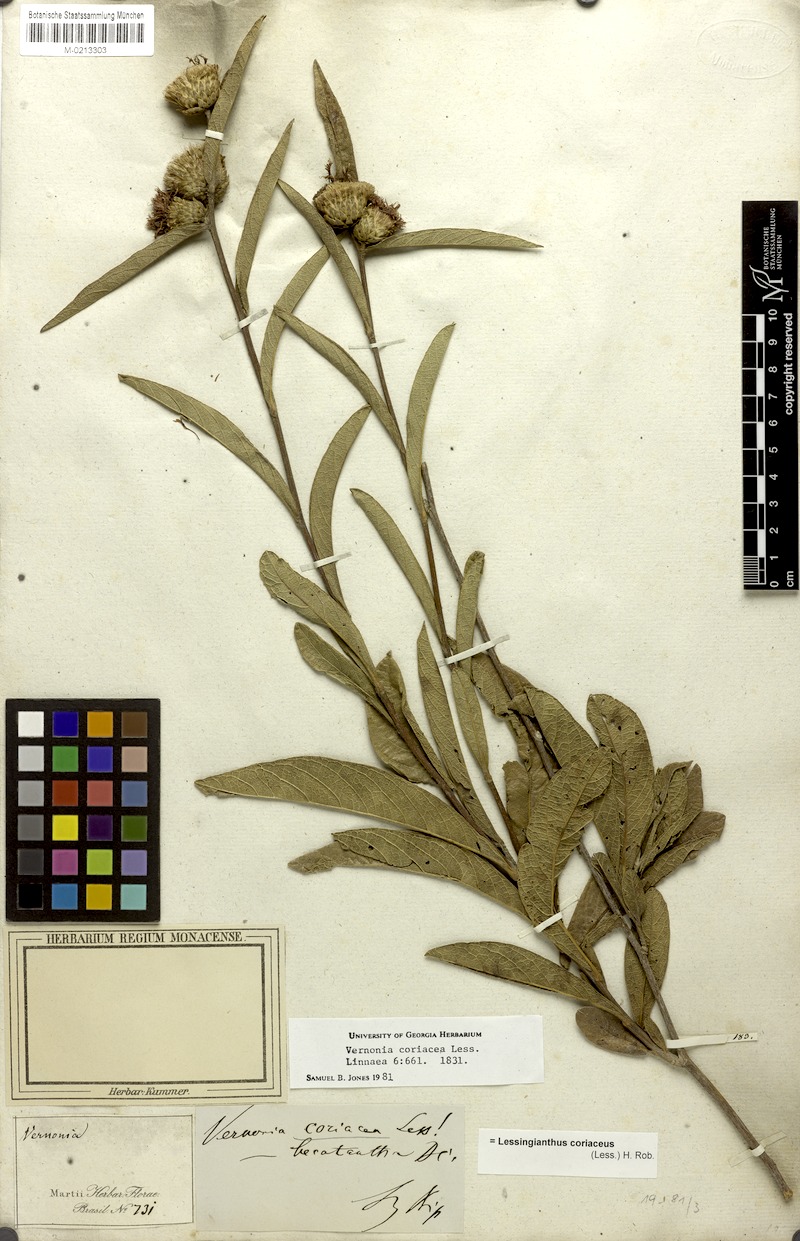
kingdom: Plantae
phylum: Tracheophyta
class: Magnoliopsida
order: Asterales
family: Asteraceae
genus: Lessingianthus
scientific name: Lessingianthus coriaceus
